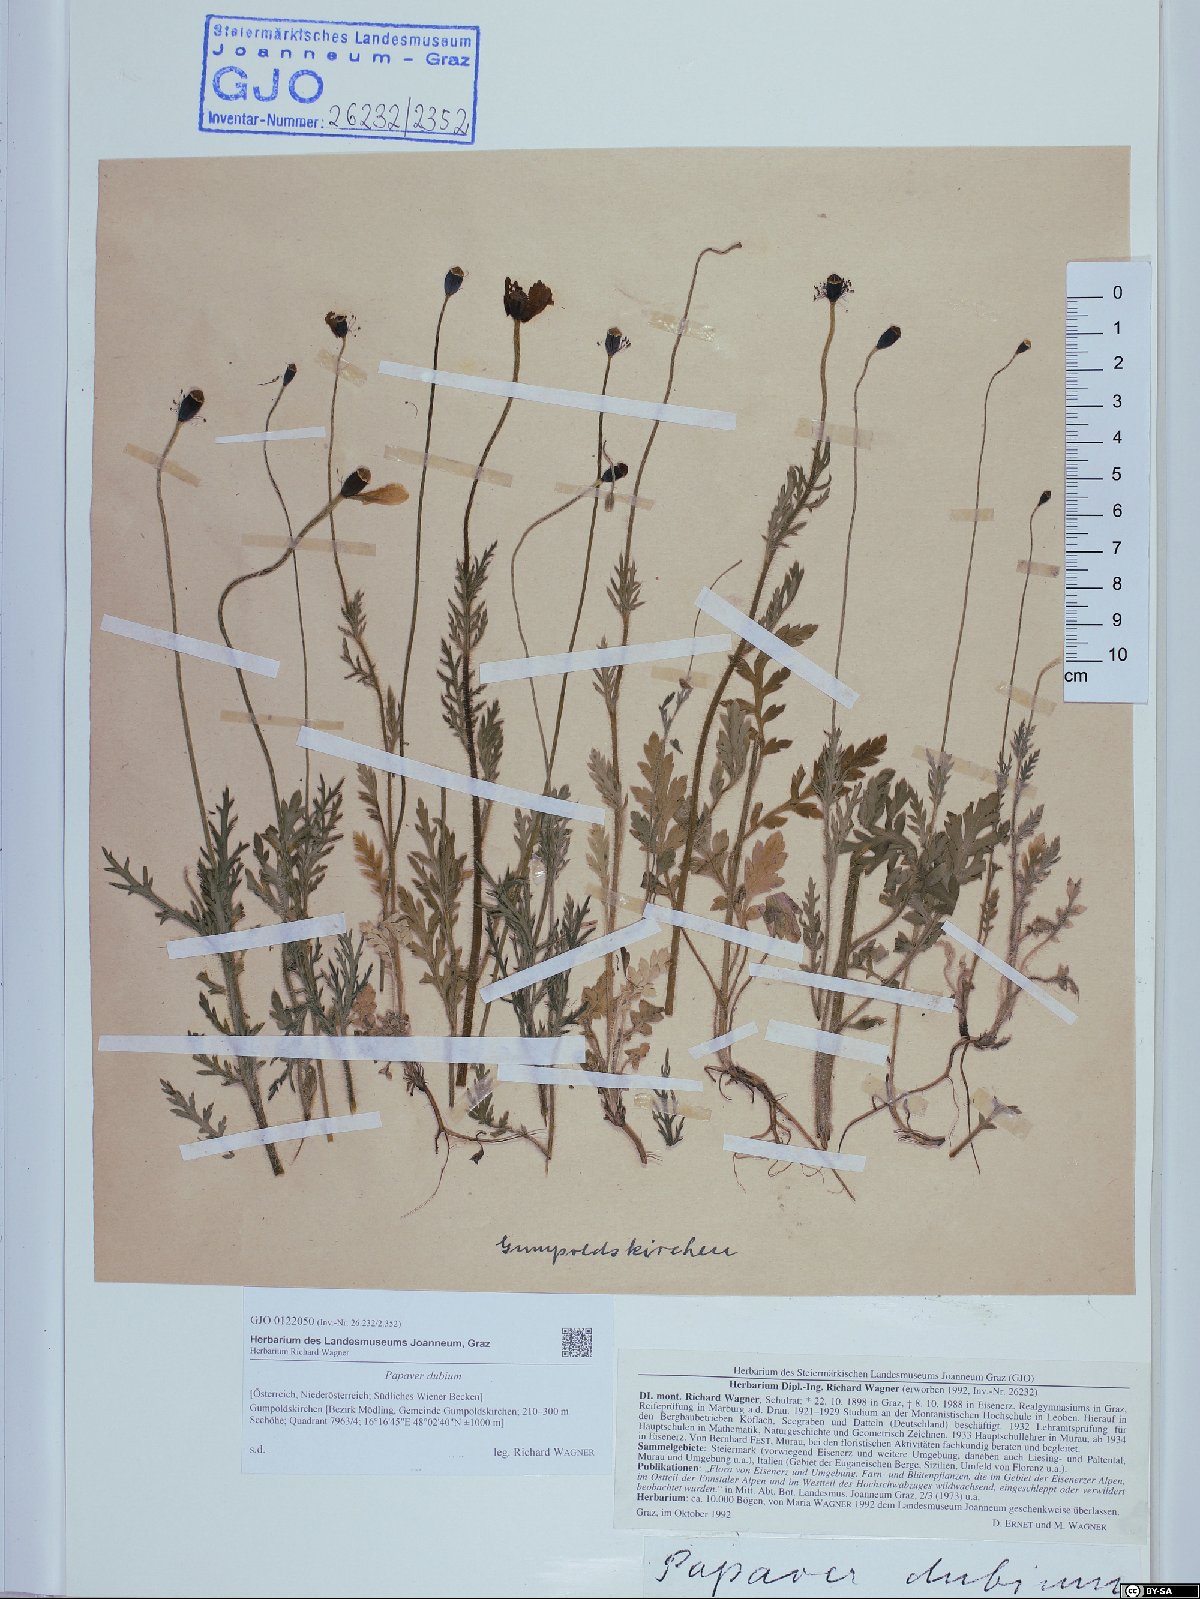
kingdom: Plantae
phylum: Tracheophyta
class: Magnoliopsida
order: Ranunculales
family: Papaveraceae
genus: Papaver
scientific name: Papaver dubium
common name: Long-headed poppy
